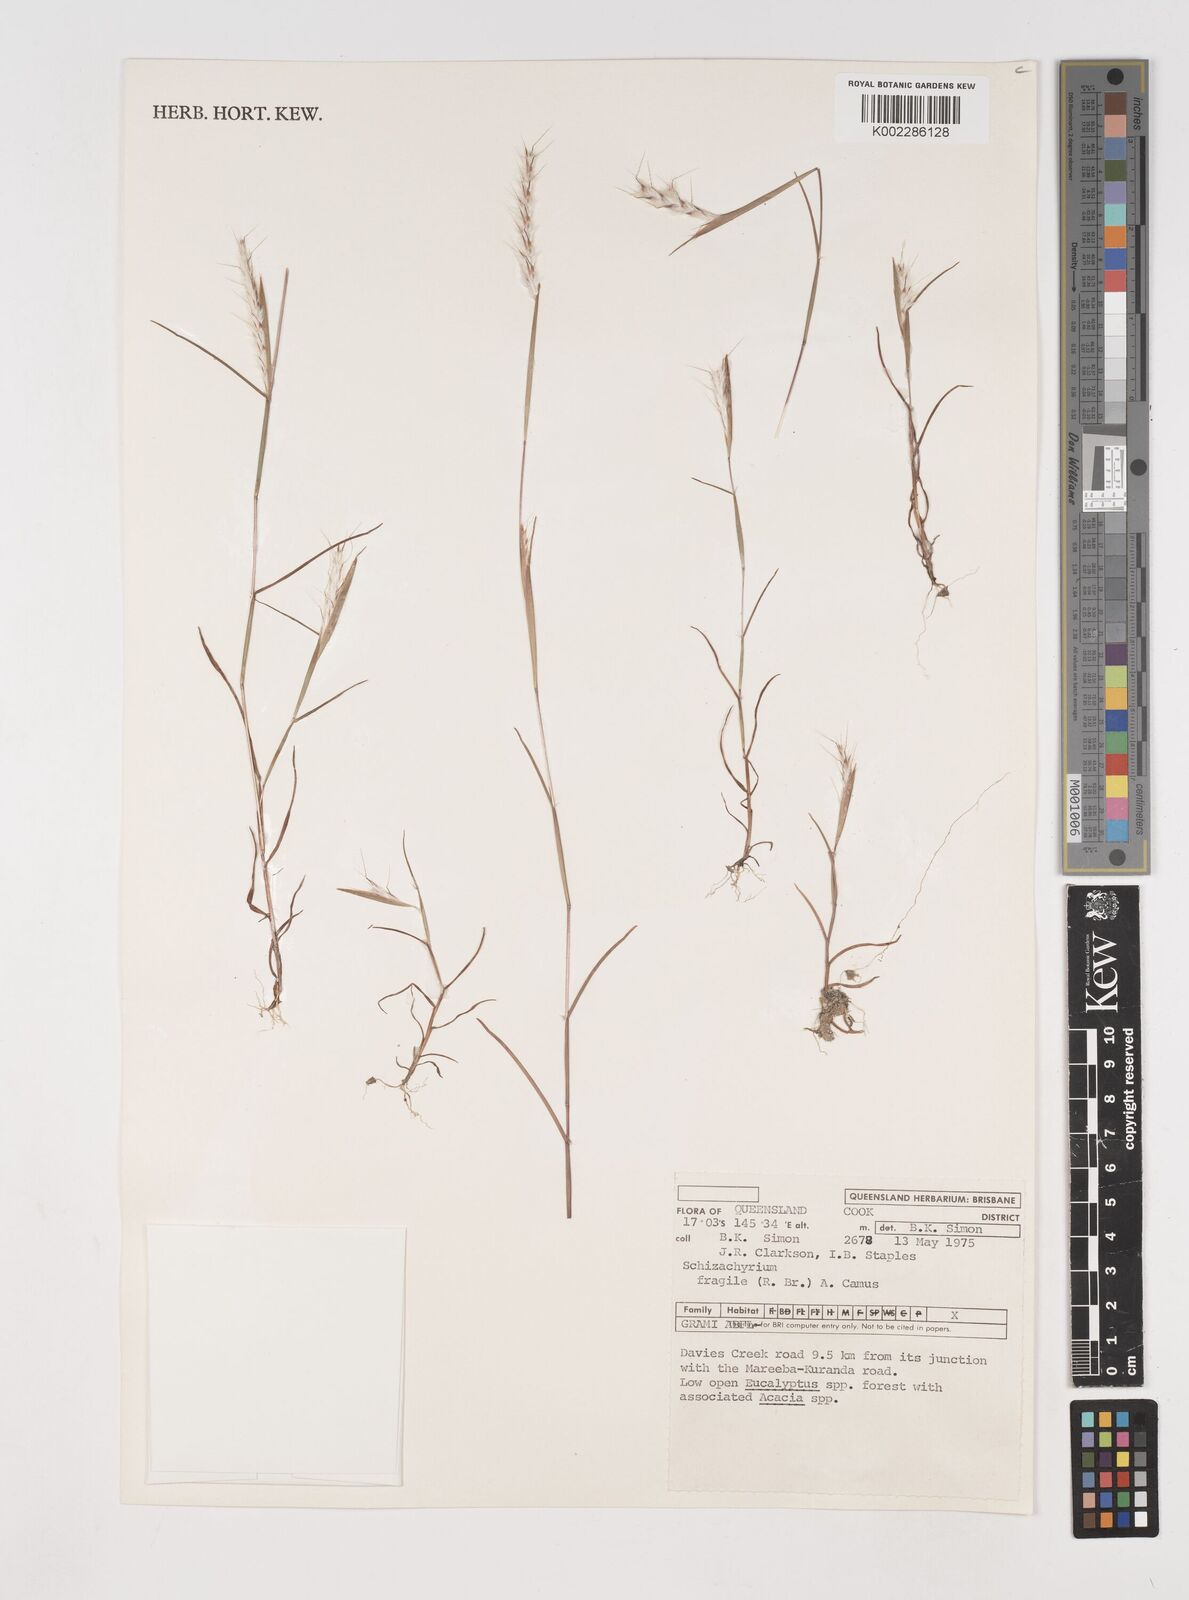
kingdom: Plantae
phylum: Tracheophyta
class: Liliopsida
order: Poales
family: Poaceae
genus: Schizachyrium
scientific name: Schizachyrium fragile
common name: Red spathe grass
